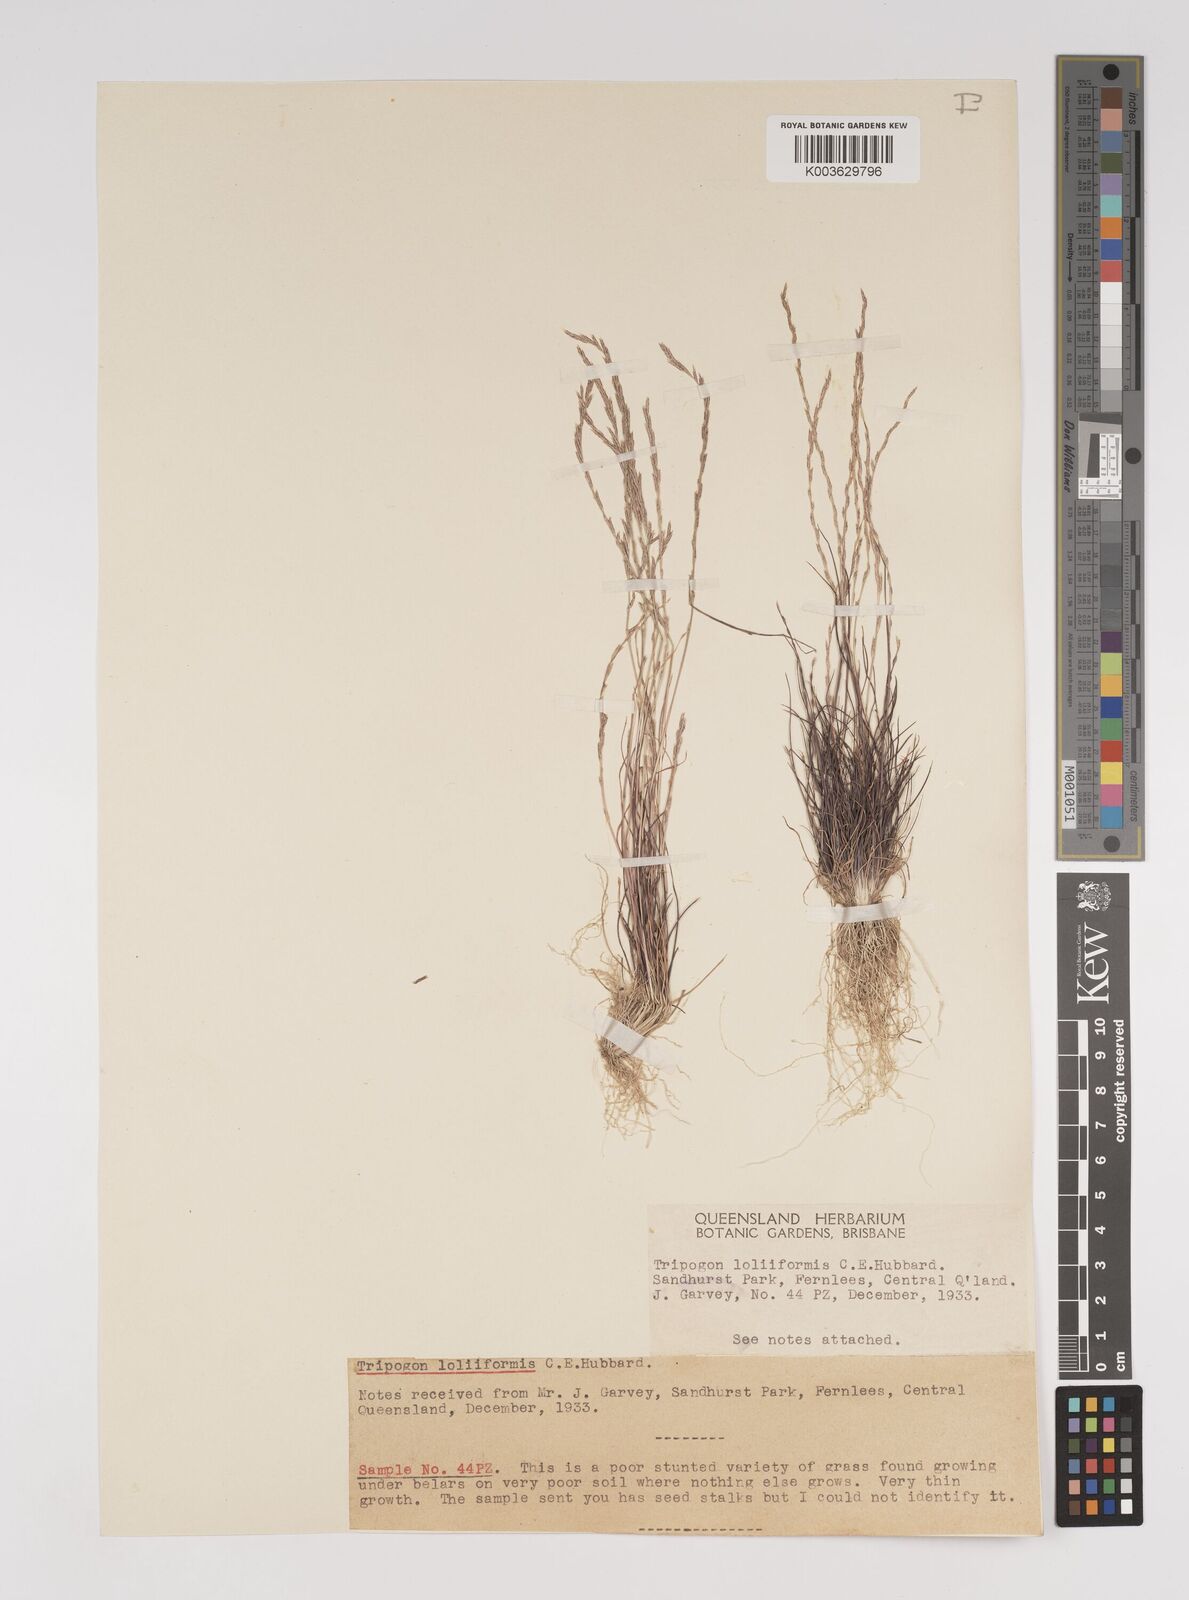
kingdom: Plantae
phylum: Tracheophyta
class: Liliopsida
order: Poales
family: Poaceae
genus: Tripogonella
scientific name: Tripogonella loliiformis
